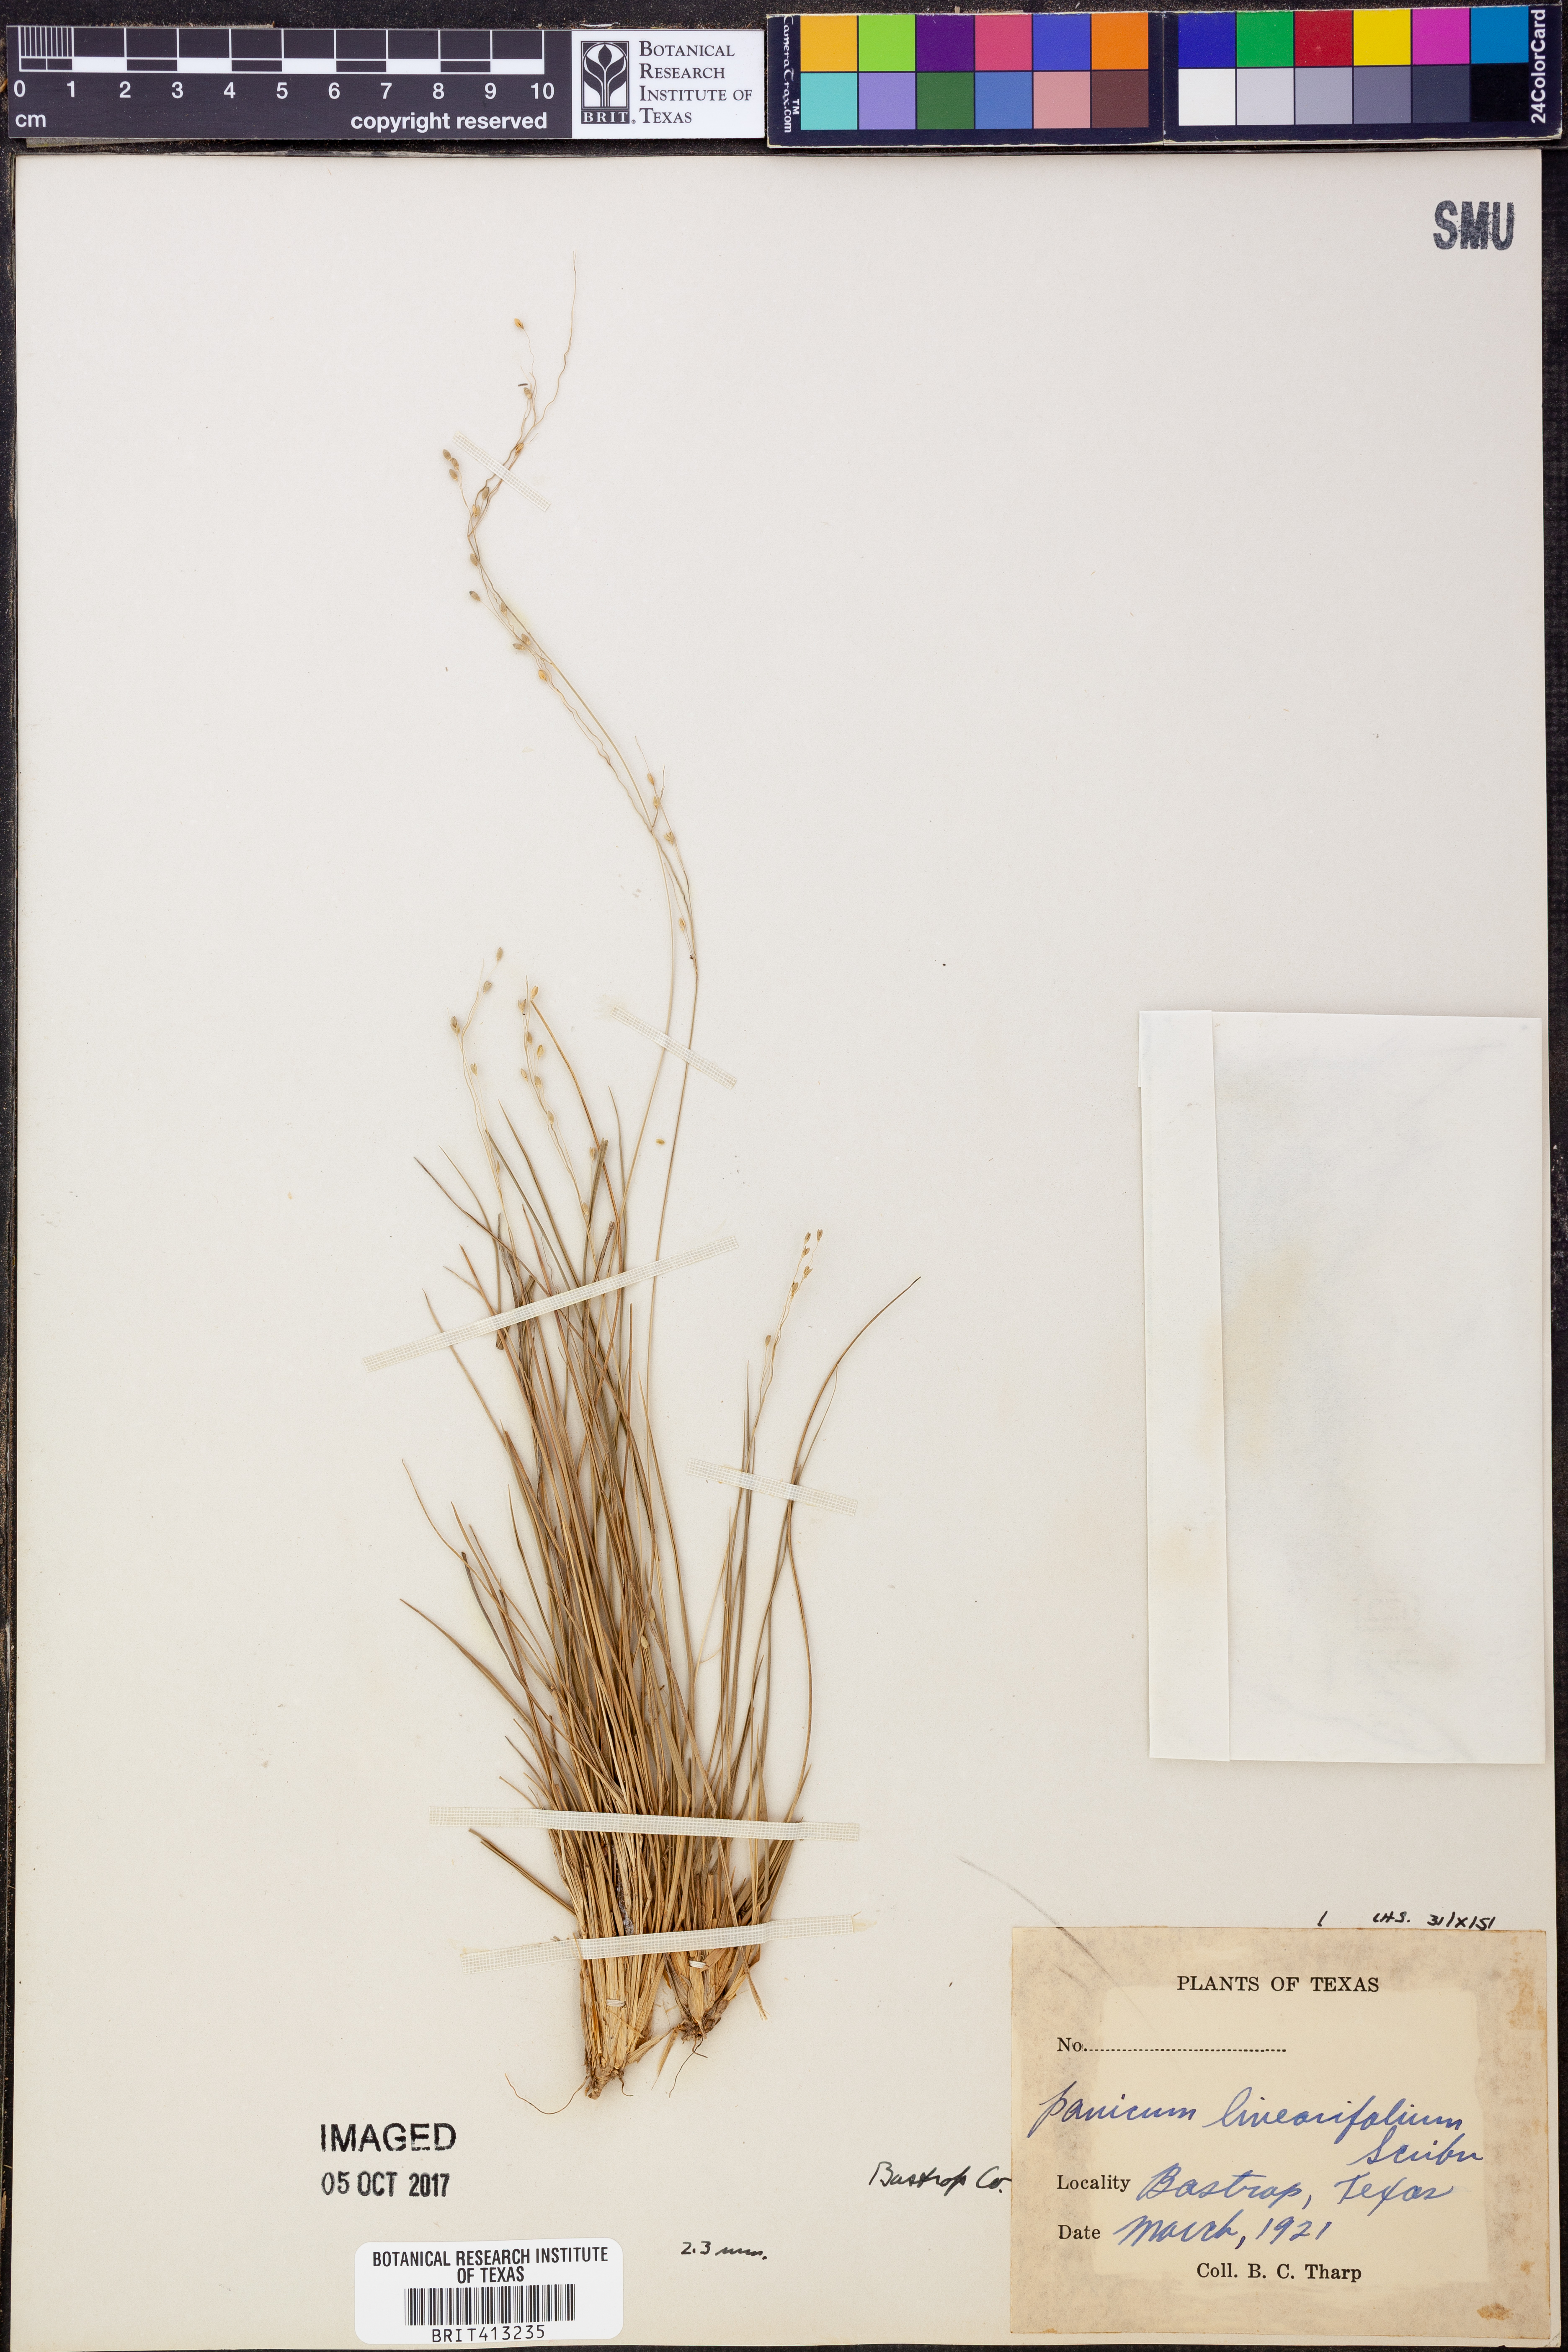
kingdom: Plantae
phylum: Tracheophyta
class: Liliopsida
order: Poales
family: Poaceae
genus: Dichanthelium
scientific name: Dichanthelium linearifolium
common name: Linear-leaved panicgrass
